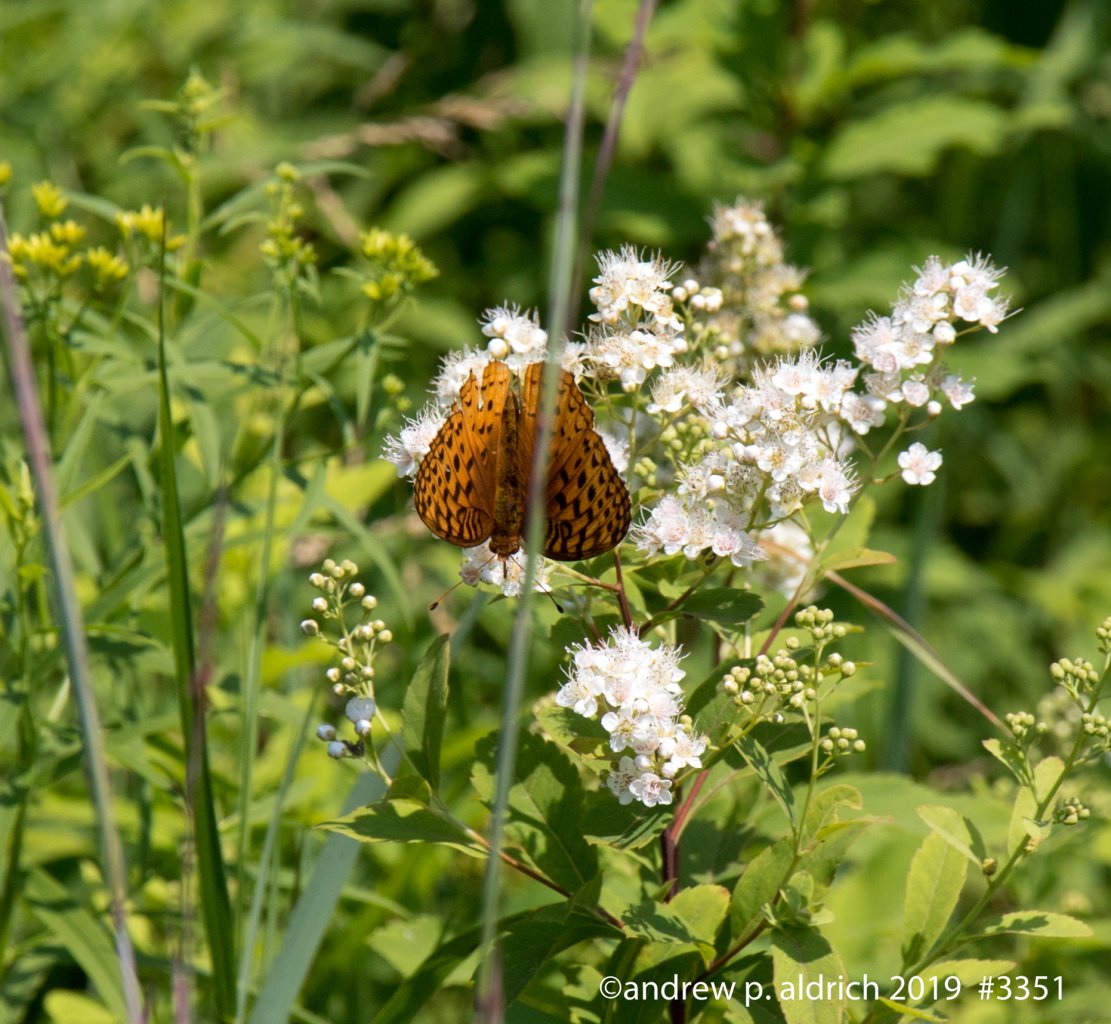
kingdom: Animalia
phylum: Arthropoda
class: Insecta
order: Lepidoptera
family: Nymphalidae
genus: Speyeria
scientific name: Speyeria cybele
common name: Great Spangled Fritillary
